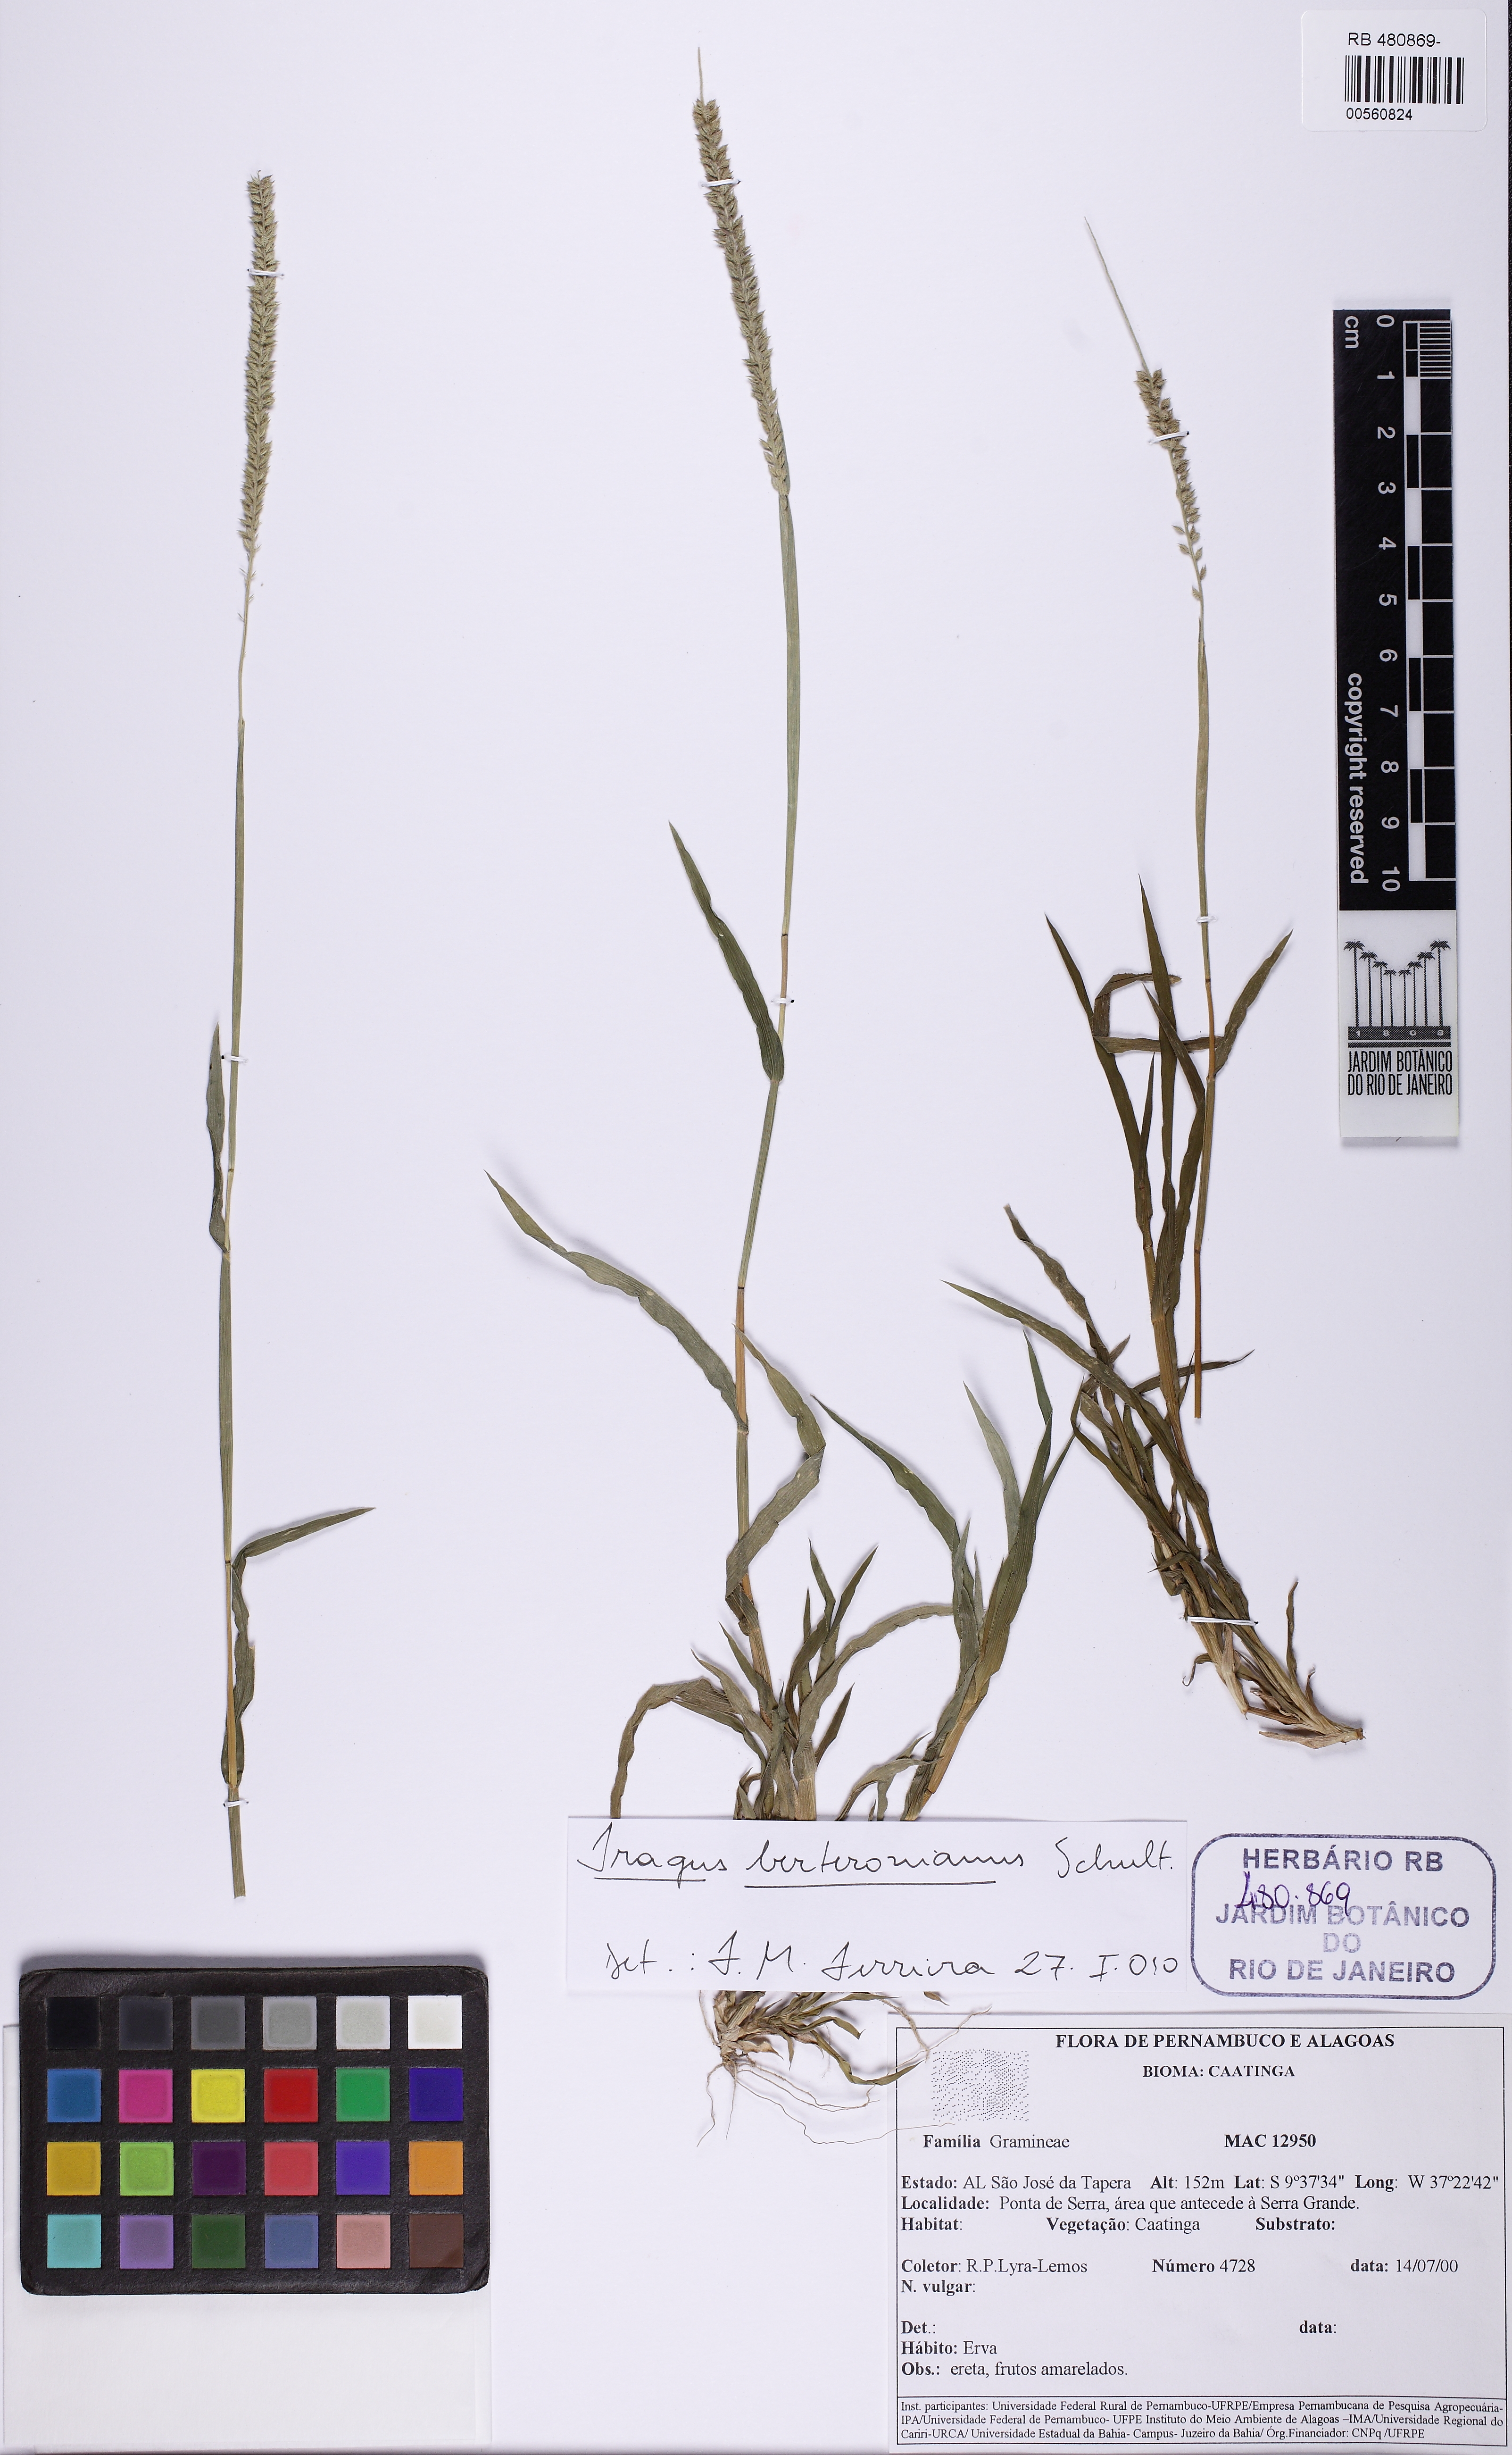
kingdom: Plantae
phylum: Tracheophyta
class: Liliopsida
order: Poales
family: Poaceae
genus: Tragus
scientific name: Tragus berteronianus
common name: African bur-grass
